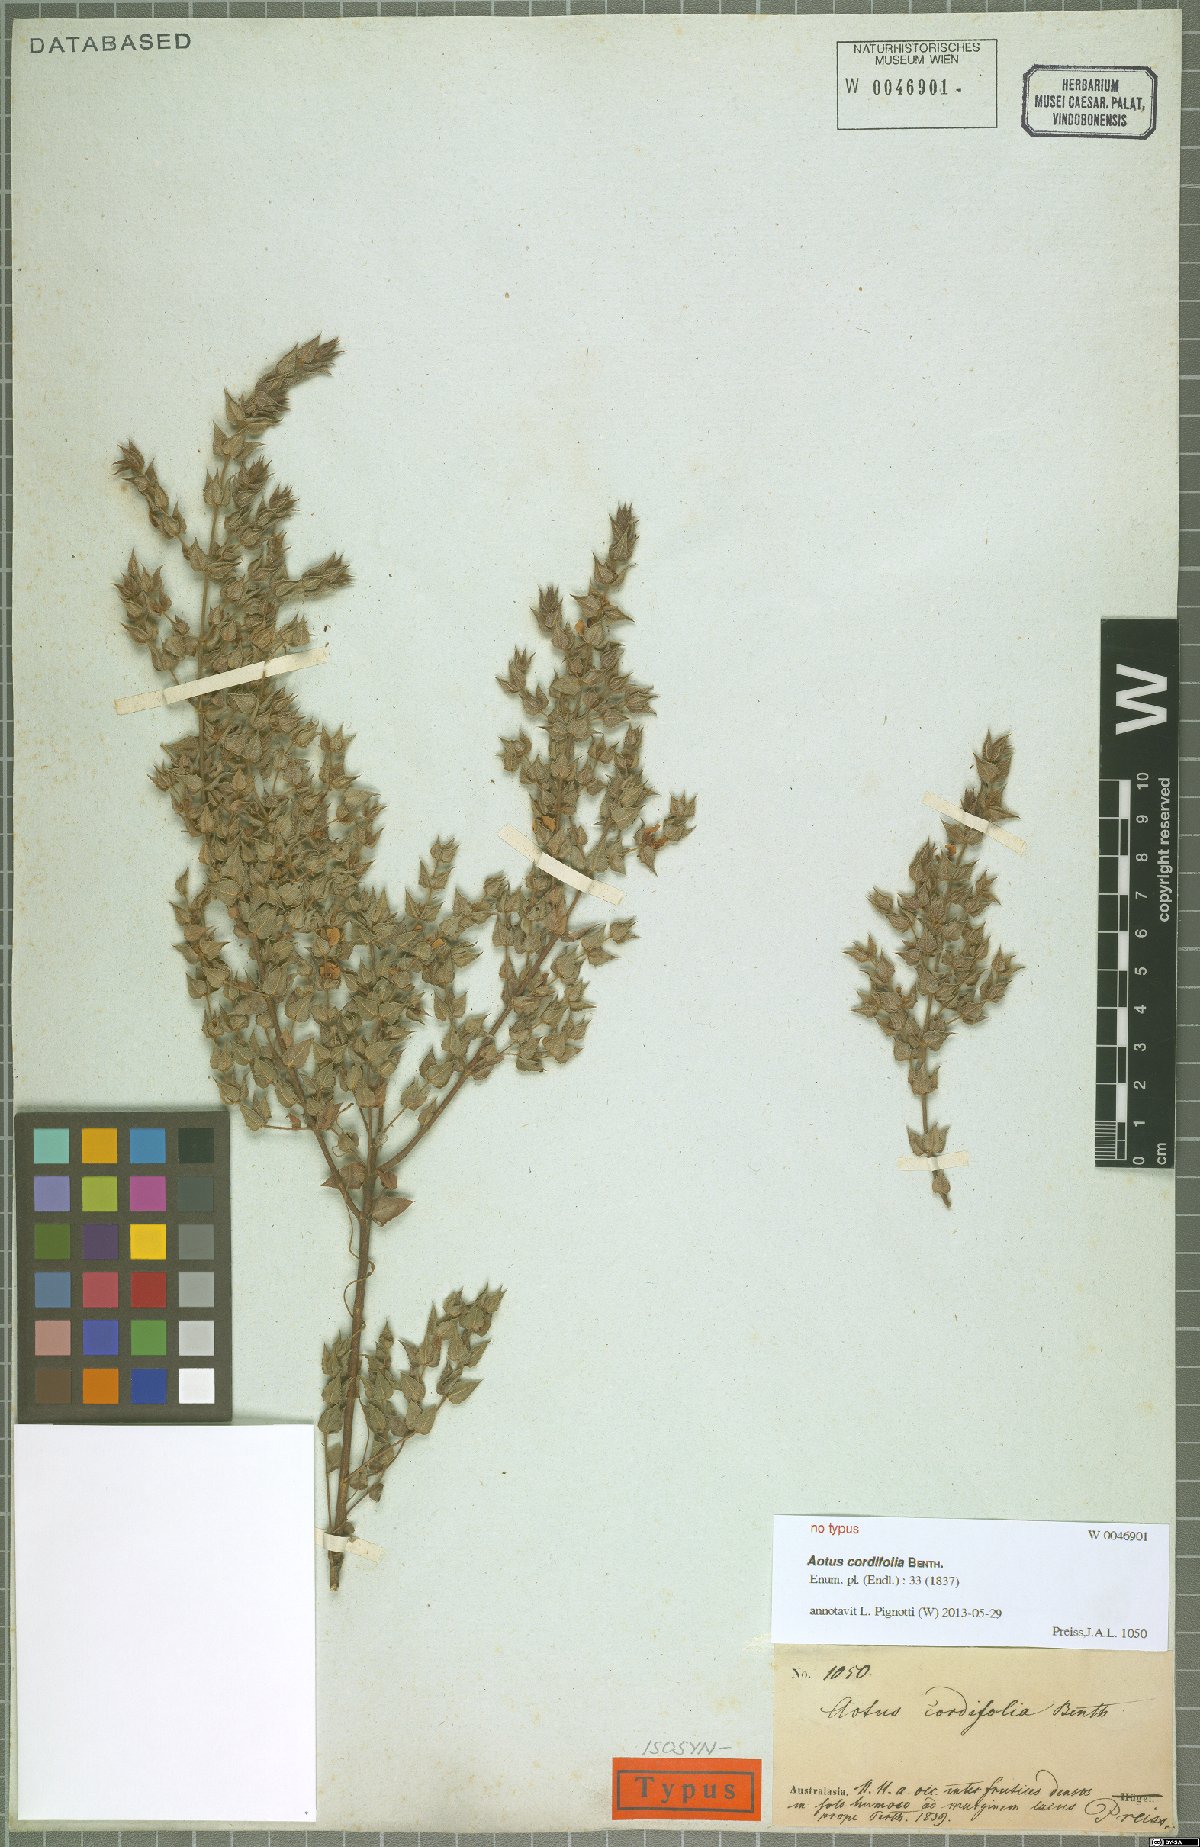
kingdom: Plantae
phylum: Tracheophyta
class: Magnoliopsida
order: Fabales
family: Fabaceae
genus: Aotus
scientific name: Aotus cordifolia
